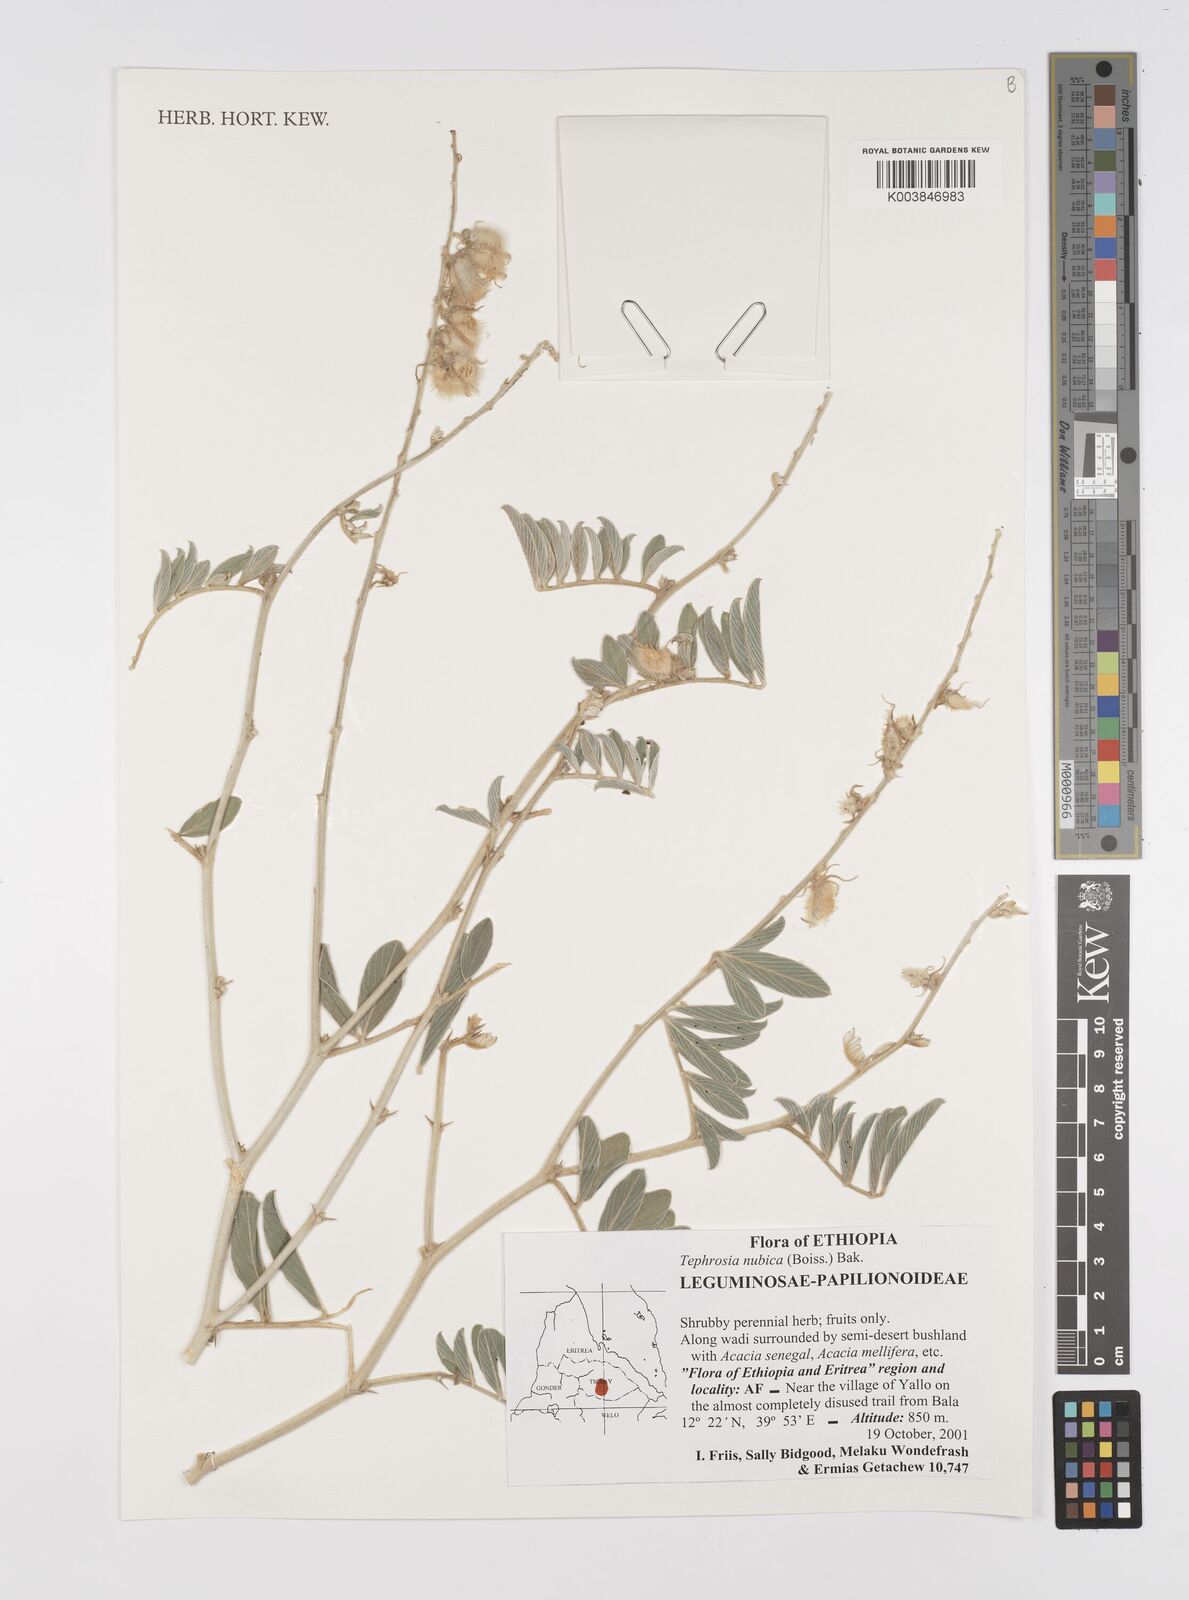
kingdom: Plantae
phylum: Tracheophyta
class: Magnoliopsida
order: Fabales
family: Fabaceae
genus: Tephrosia
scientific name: Tephrosia nubica
